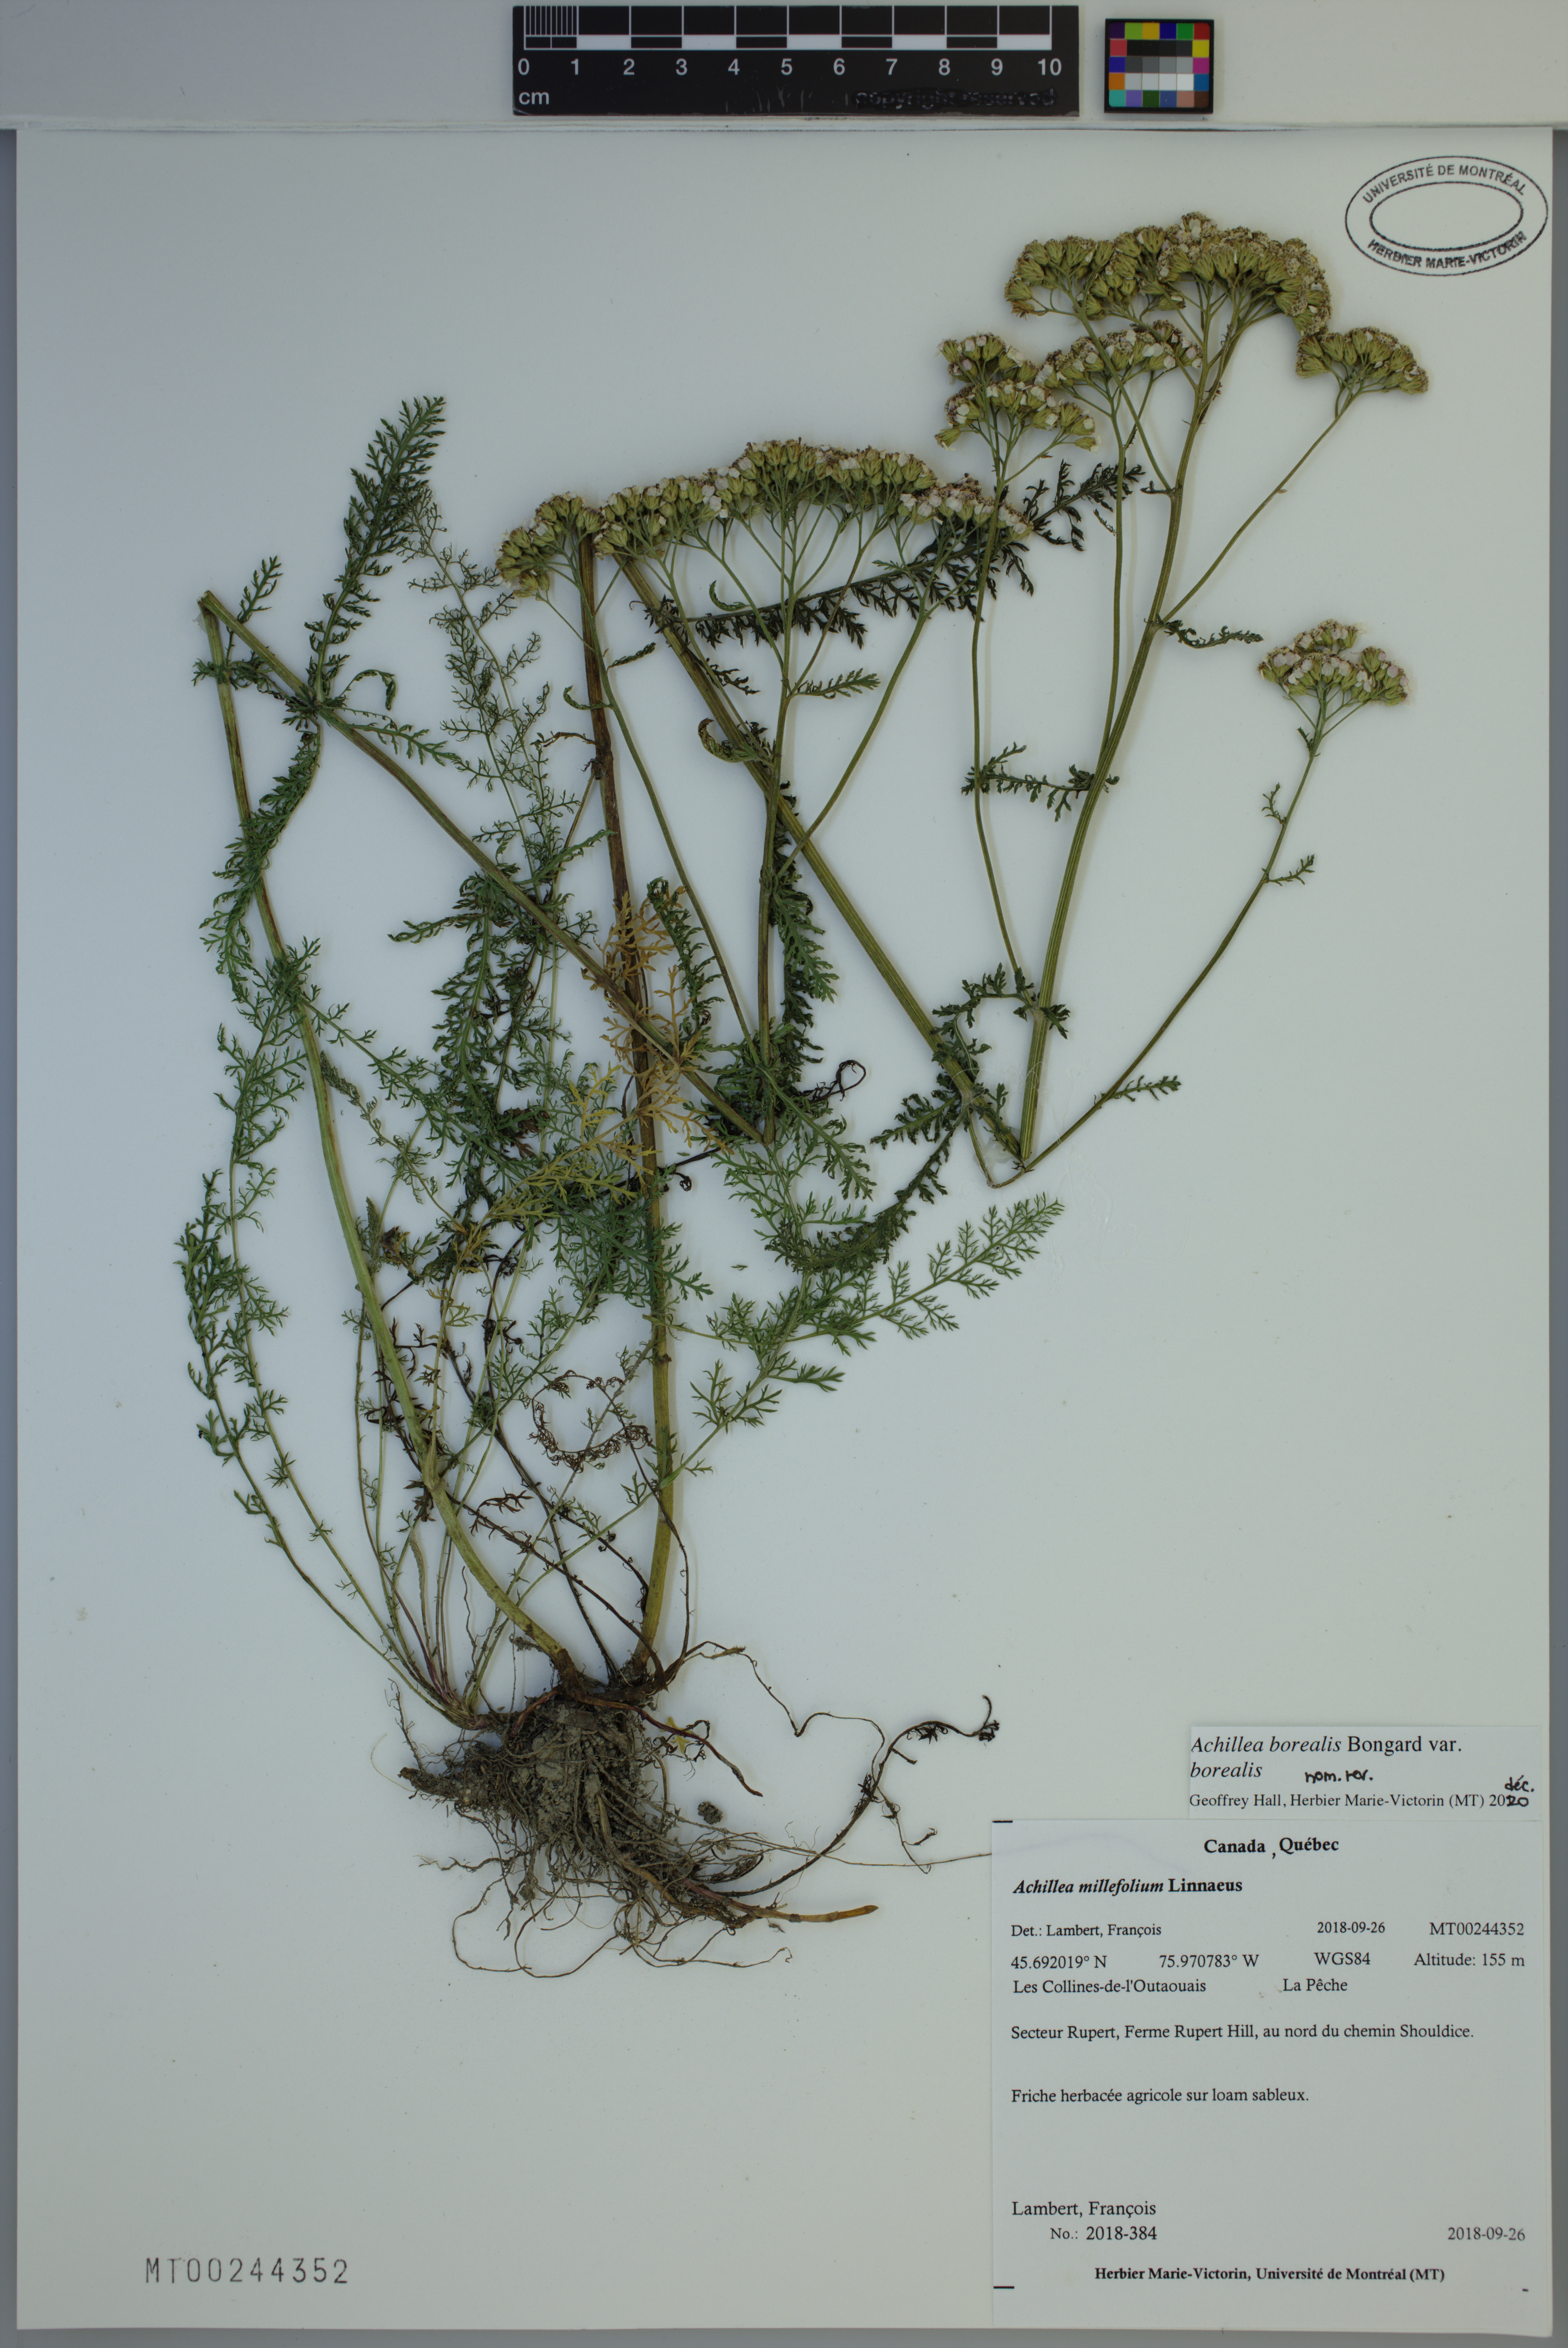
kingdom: Plantae
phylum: Tracheophyta
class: Magnoliopsida
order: Asterales
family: Asteraceae
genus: Achillea
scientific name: Achillea millefolium
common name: Yarrow
